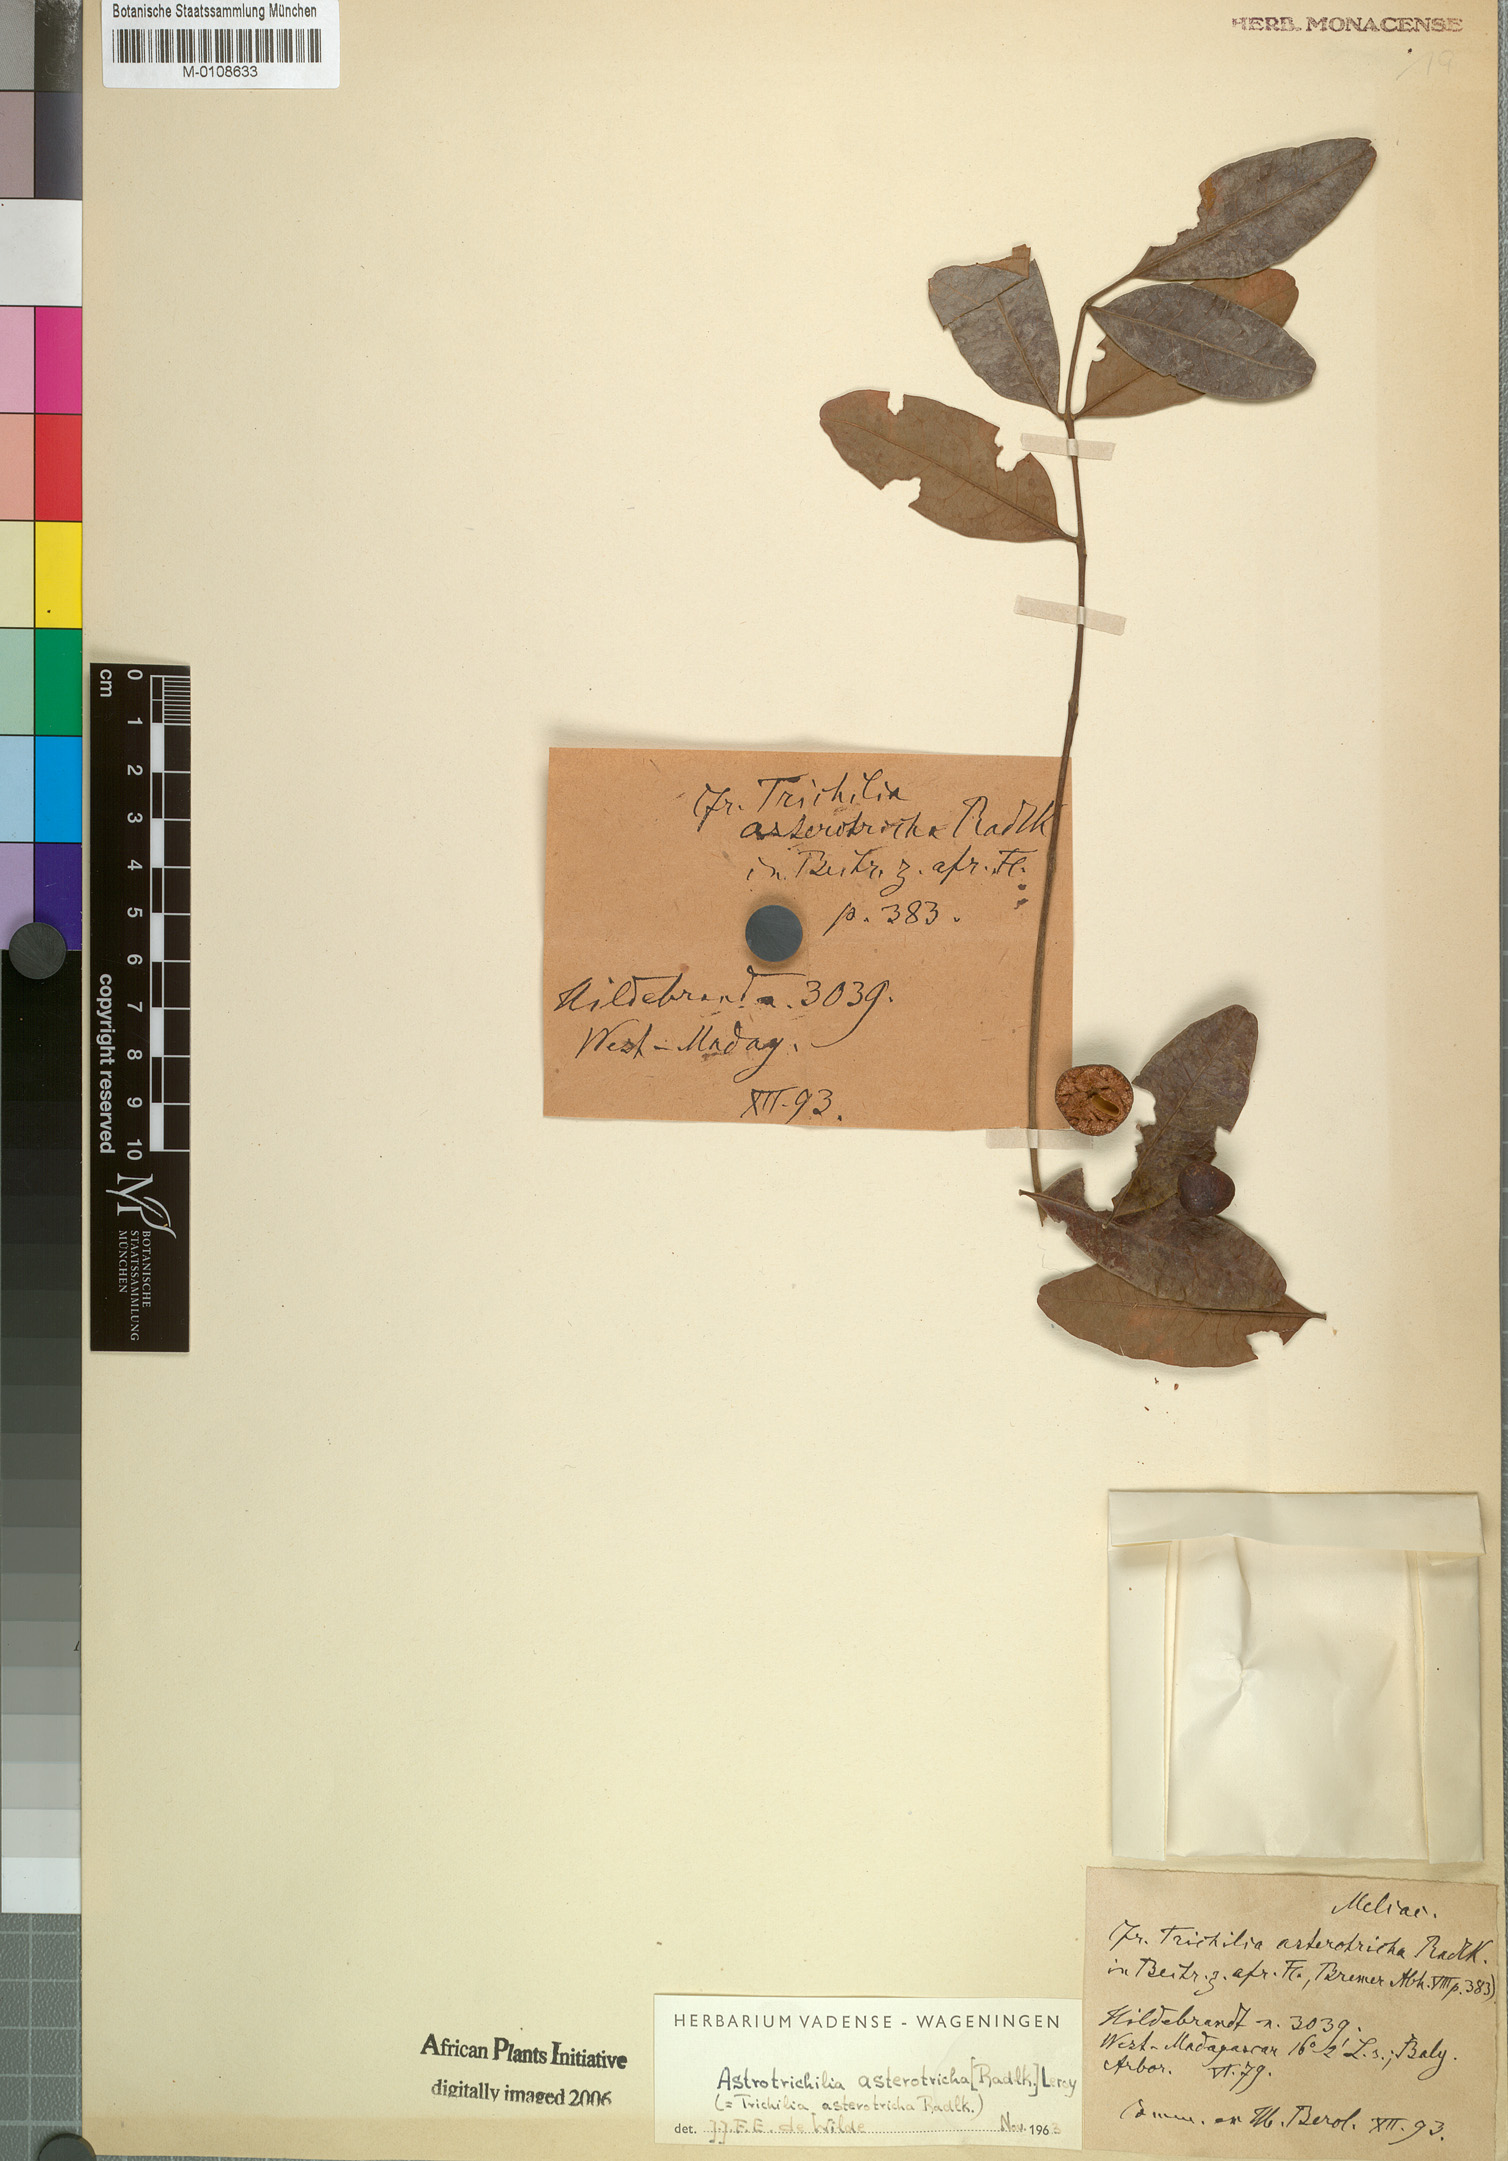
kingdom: Plantae
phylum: Tracheophyta
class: Magnoliopsida
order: Sapindales
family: Meliaceae
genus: Astrotrichilia
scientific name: Astrotrichilia asterotricha
